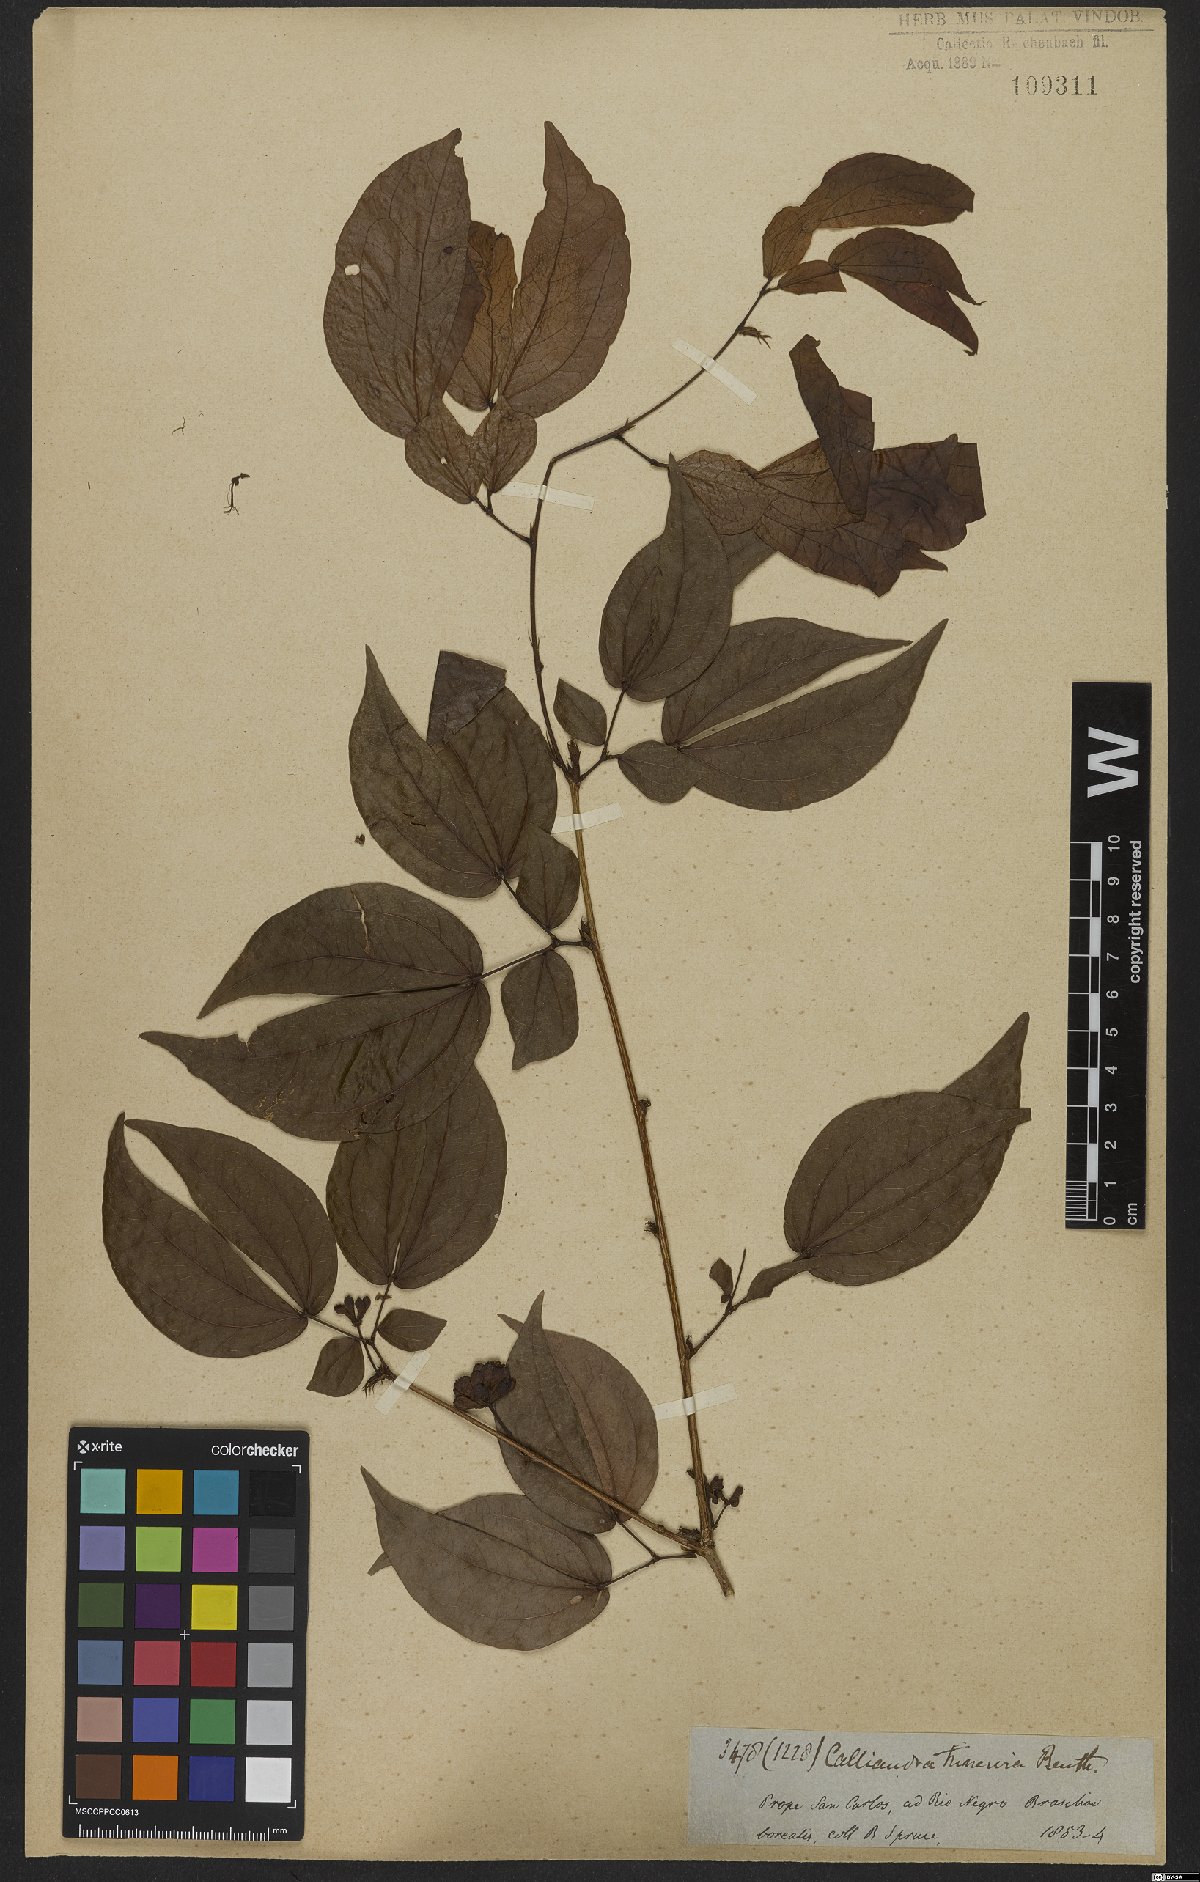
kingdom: Plantae
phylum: Tracheophyta
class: Magnoliopsida
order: Fabales
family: Fabaceae
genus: Calliandra
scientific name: Calliandra trinervia
